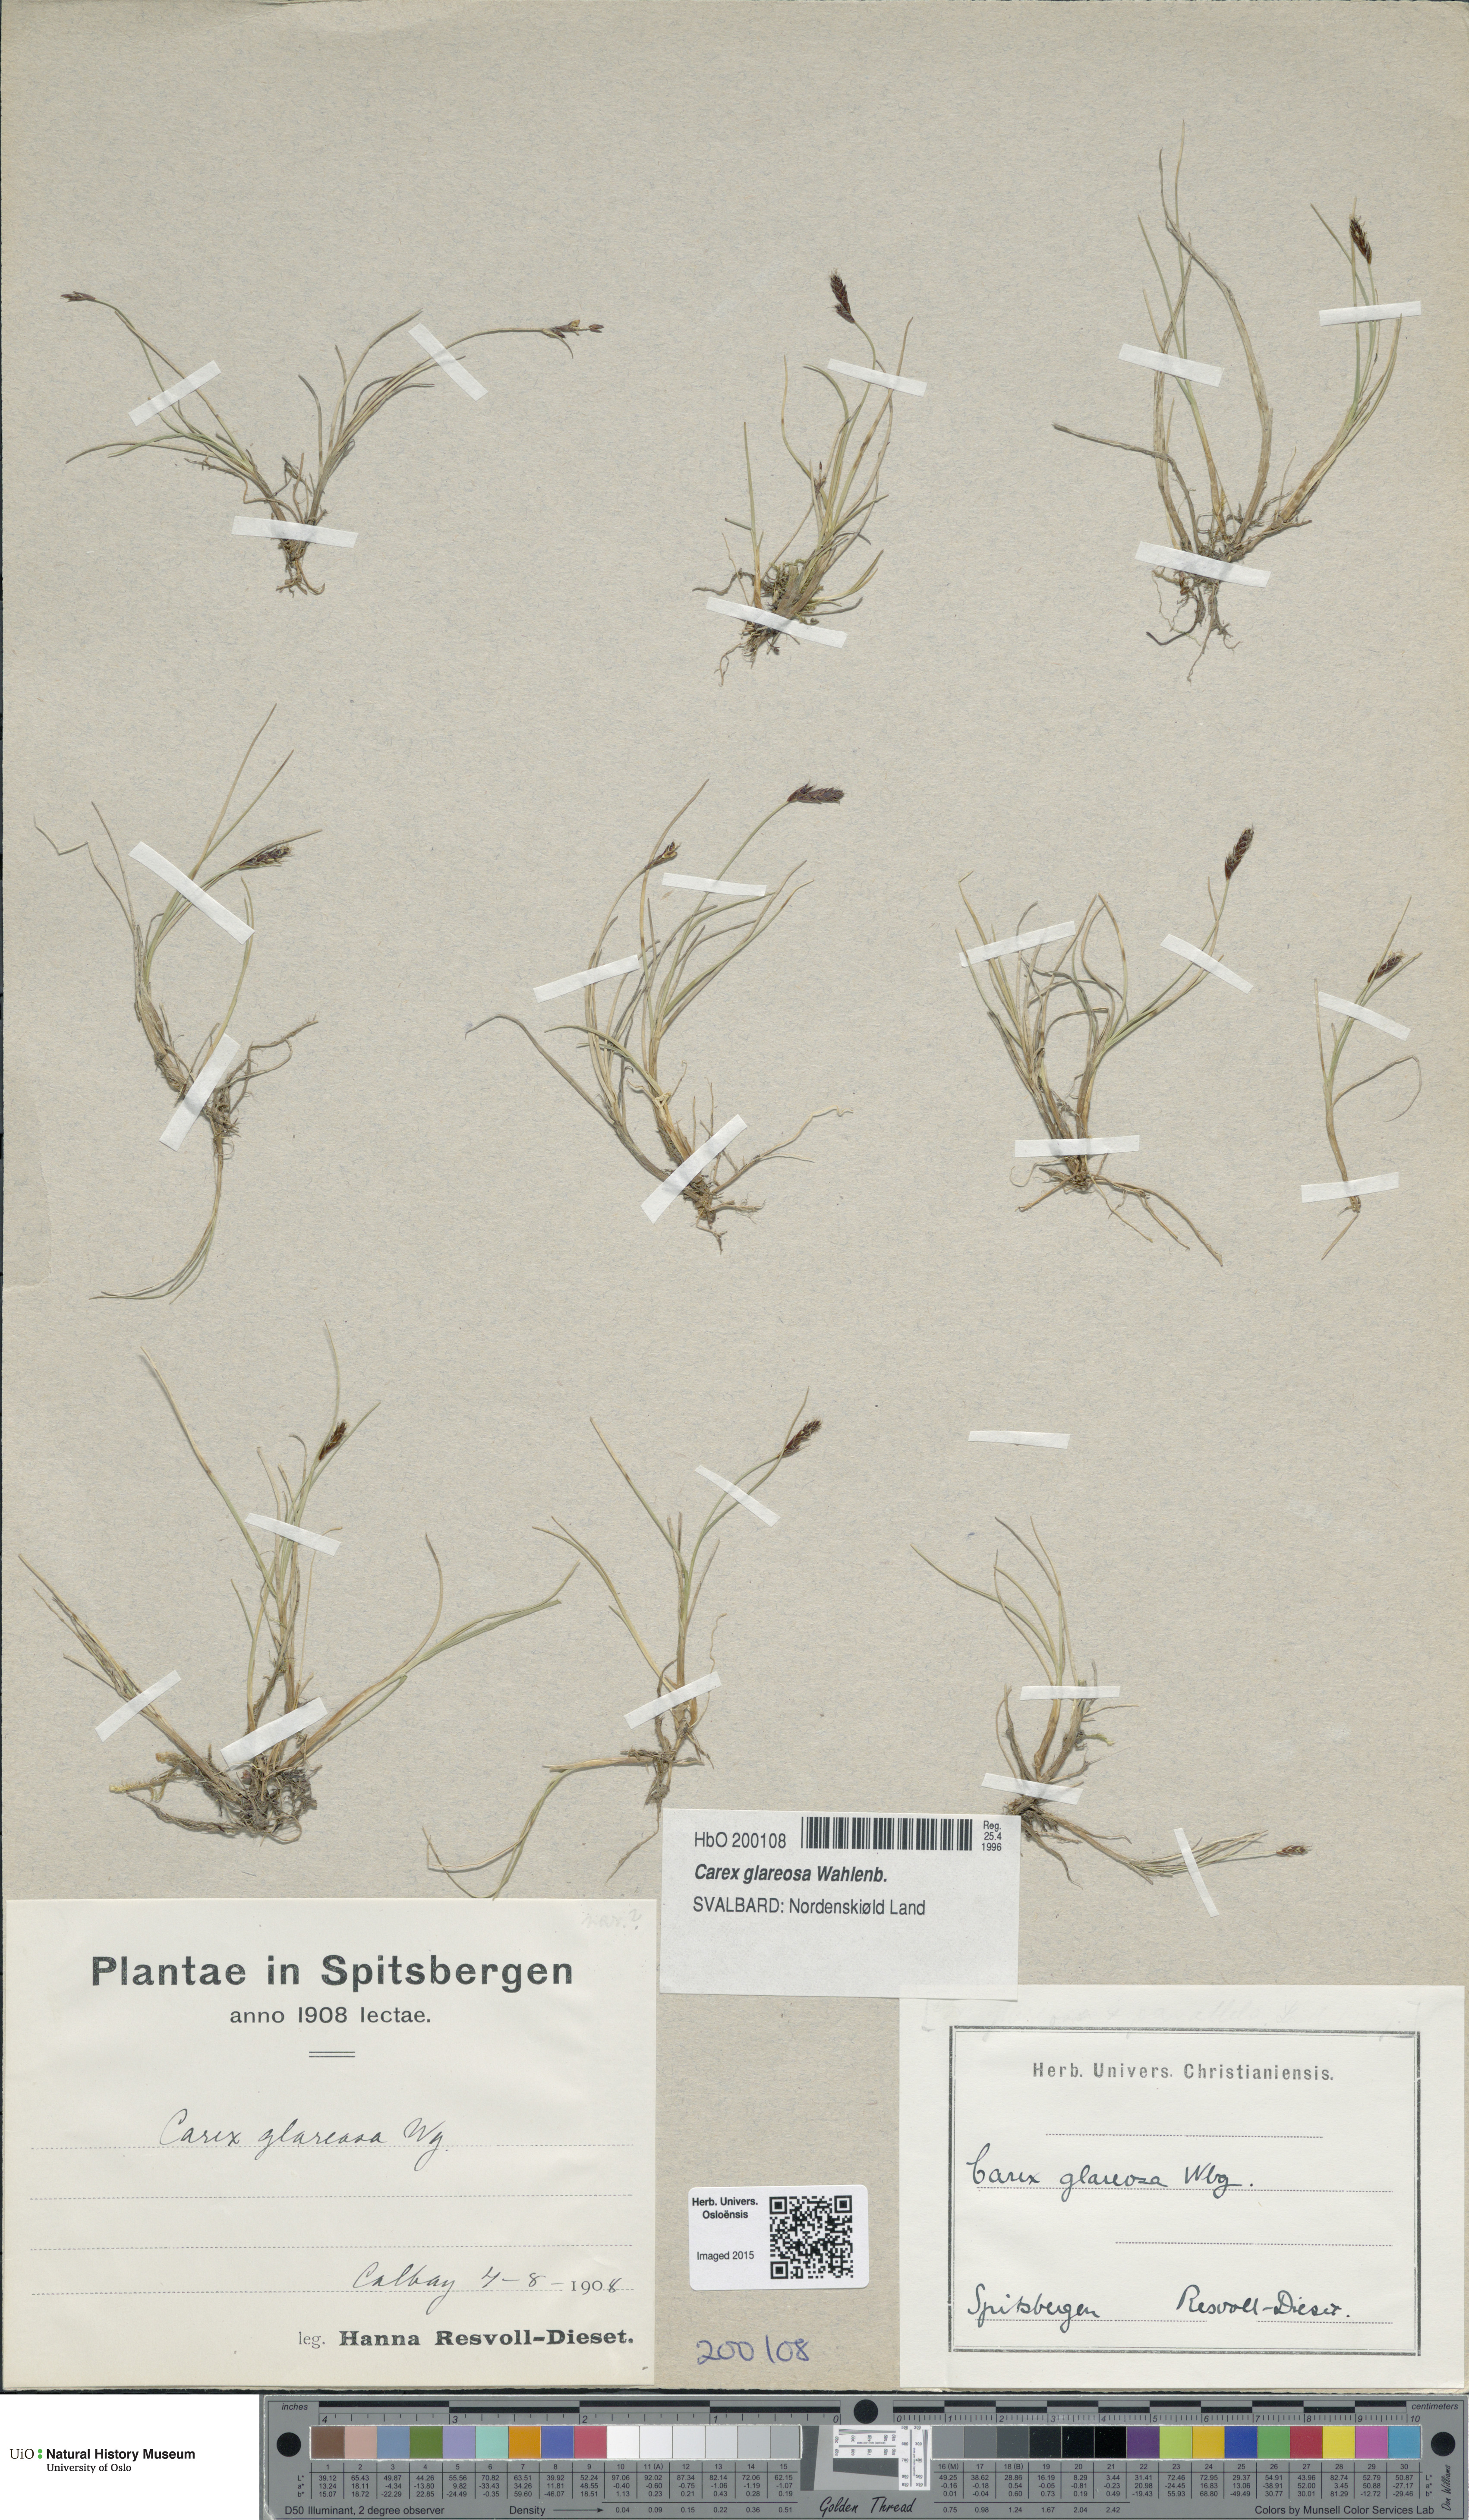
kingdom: Plantae
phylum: Tracheophyta
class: Liliopsida
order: Poales
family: Cyperaceae
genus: Carex
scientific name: Carex glareosa
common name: Clustered sedge
